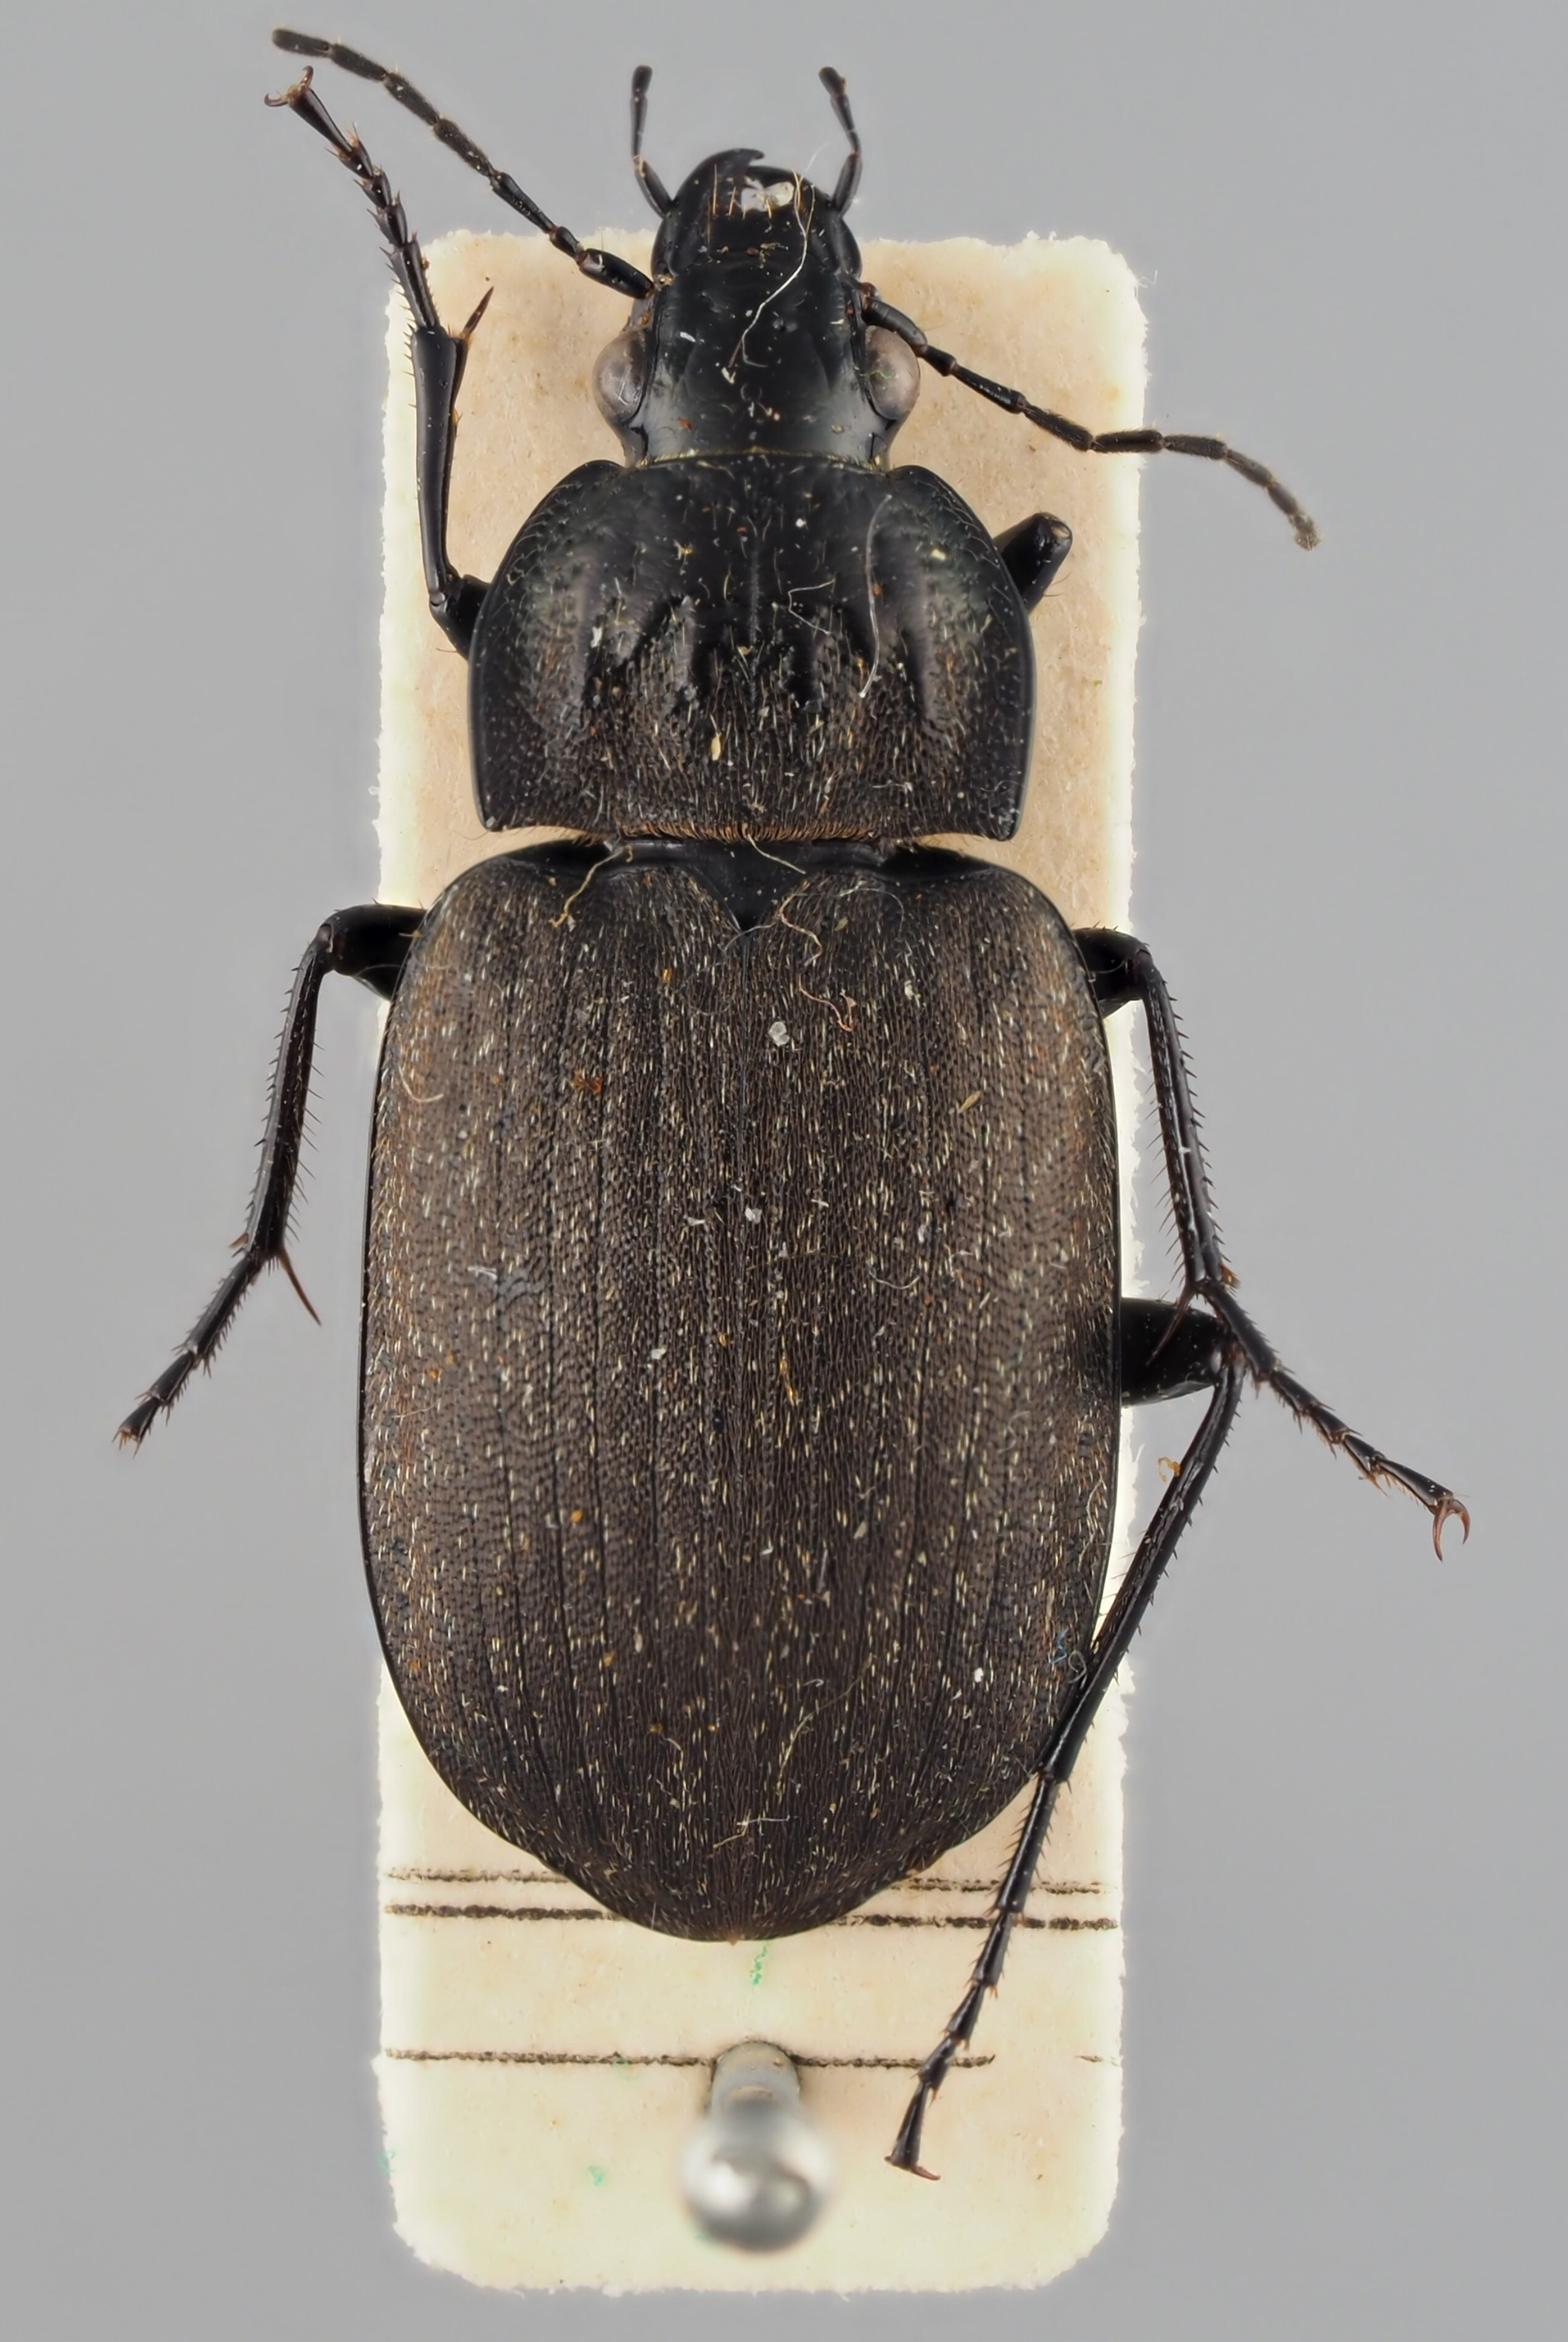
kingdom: Animalia
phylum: Arthropoda
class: Insecta
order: Coleoptera
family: Carabidae
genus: Chlaenius
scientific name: Chlaenius sulcicollis
